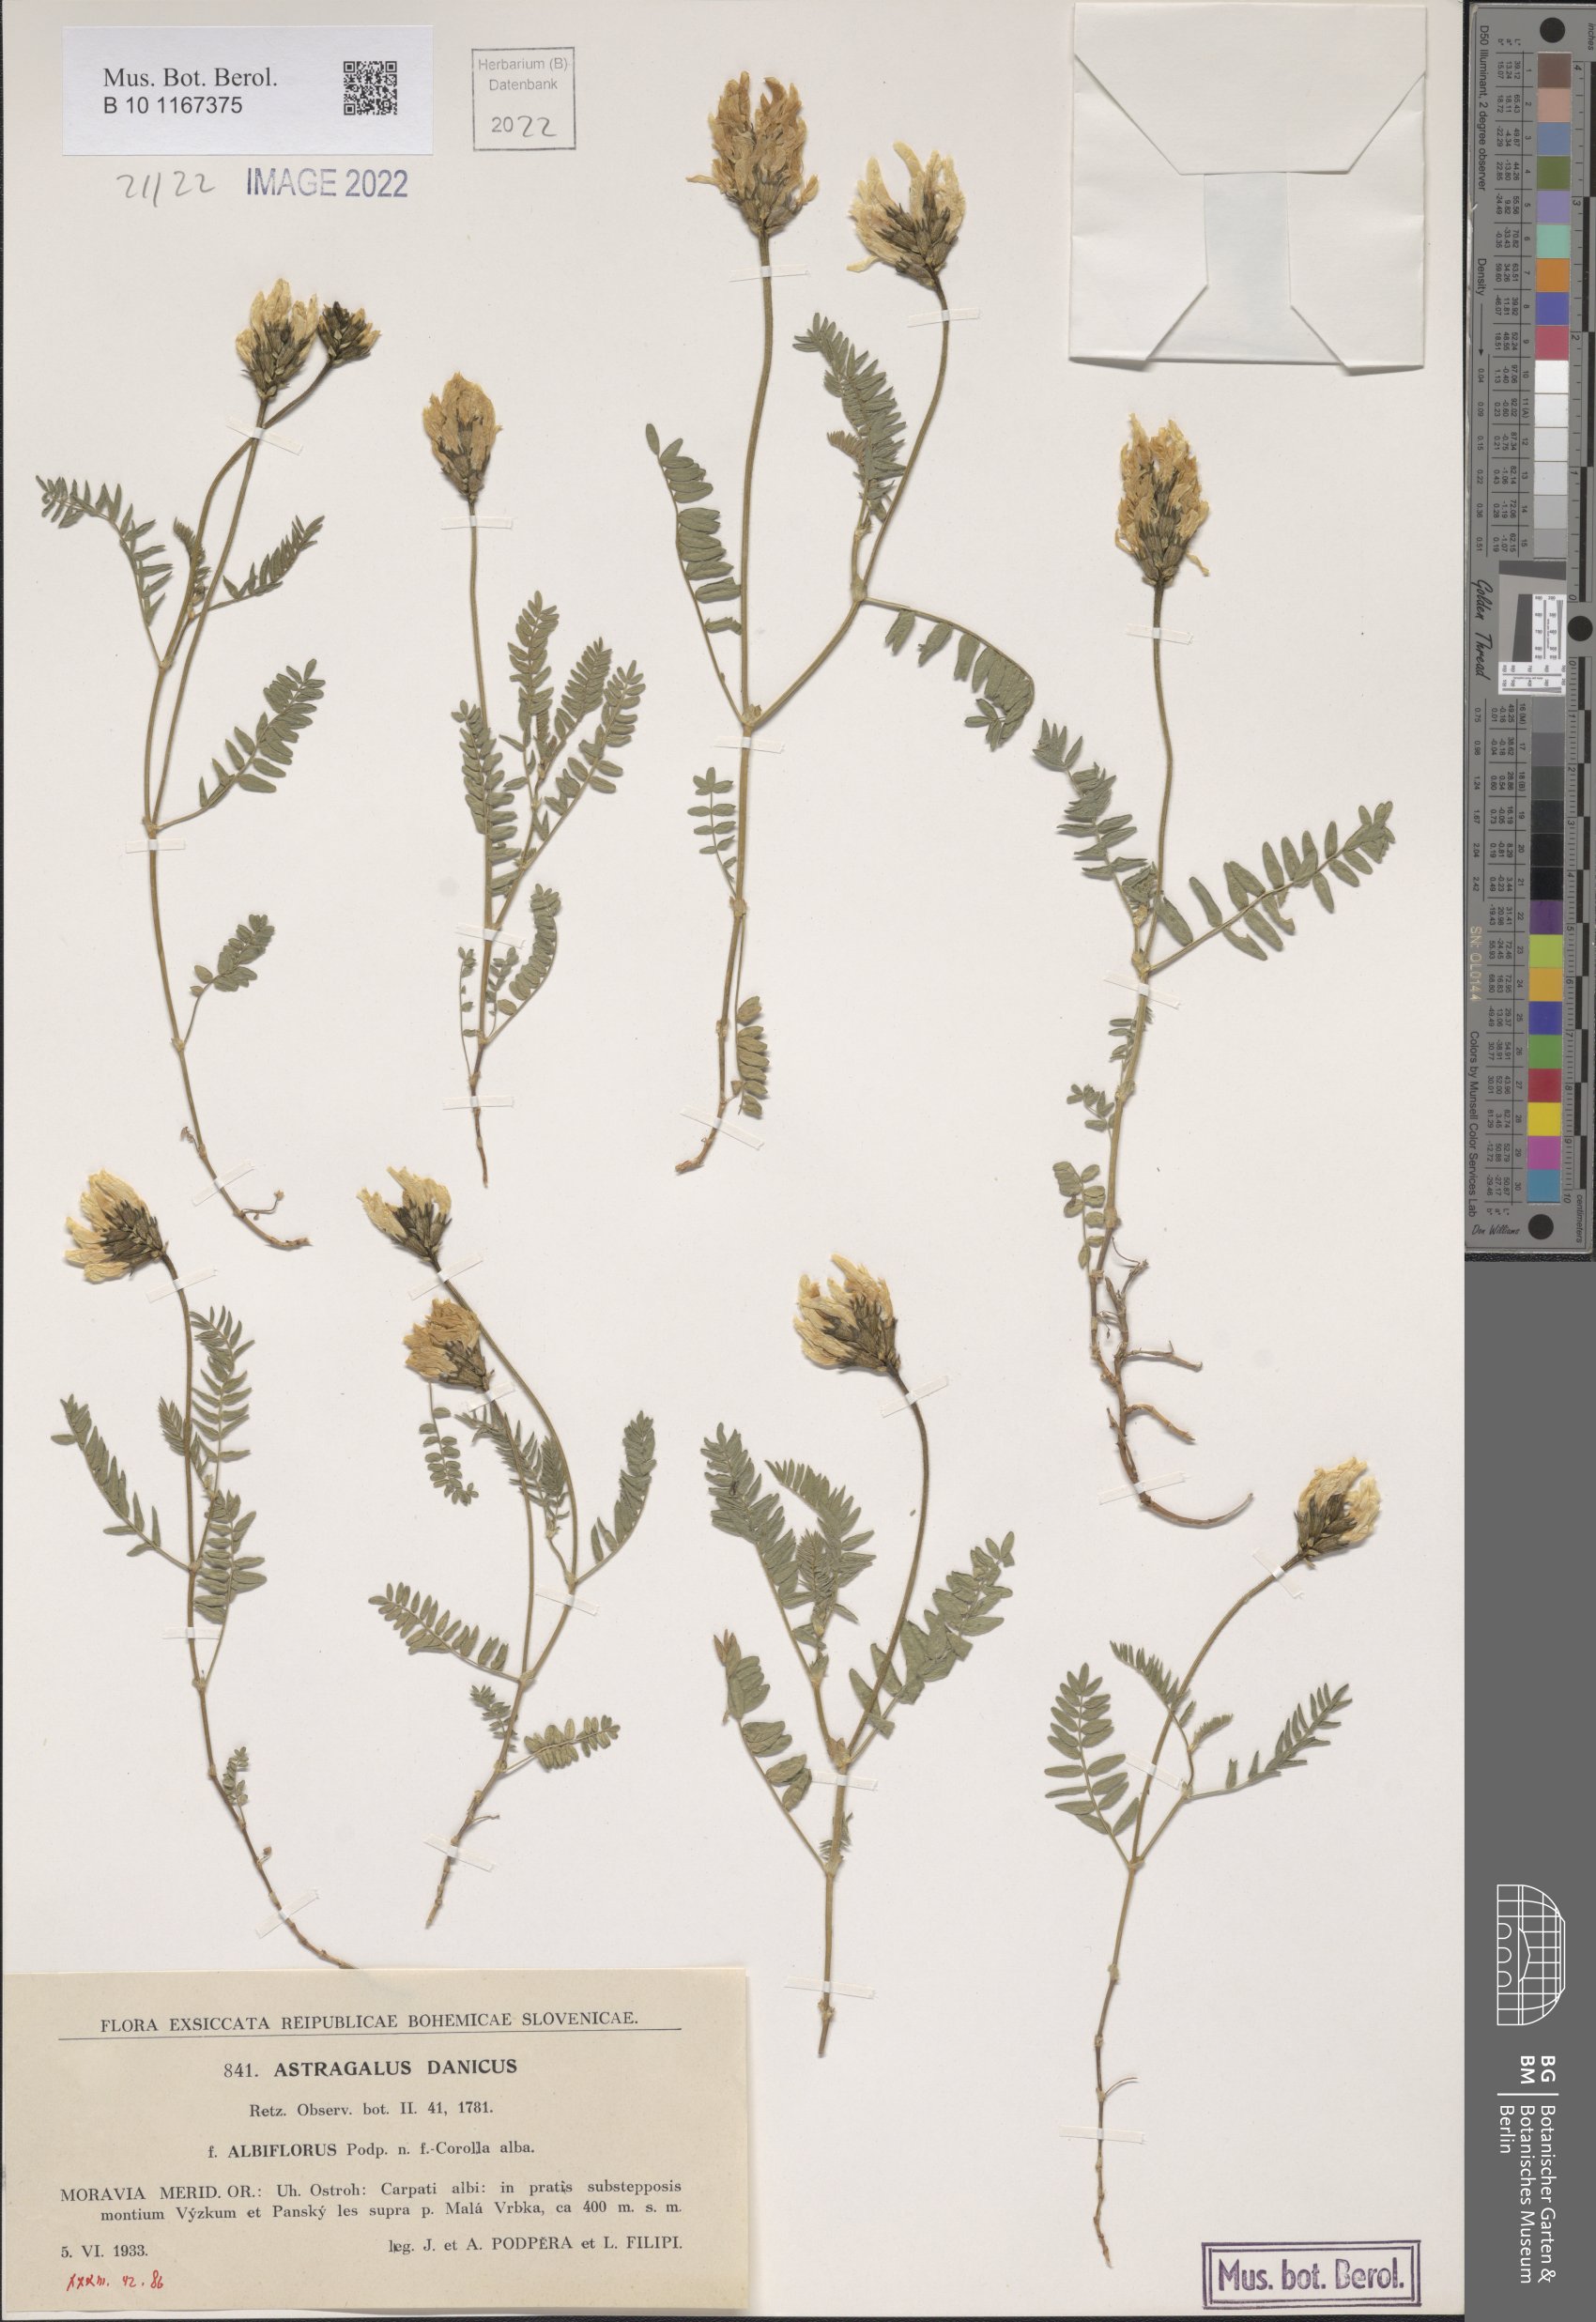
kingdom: Plantae
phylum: Tracheophyta
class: Magnoliopsida
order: Fabales
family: Fabaceae
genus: Astragalus
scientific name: Astragalus danicus
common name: Purple milk-vetch
